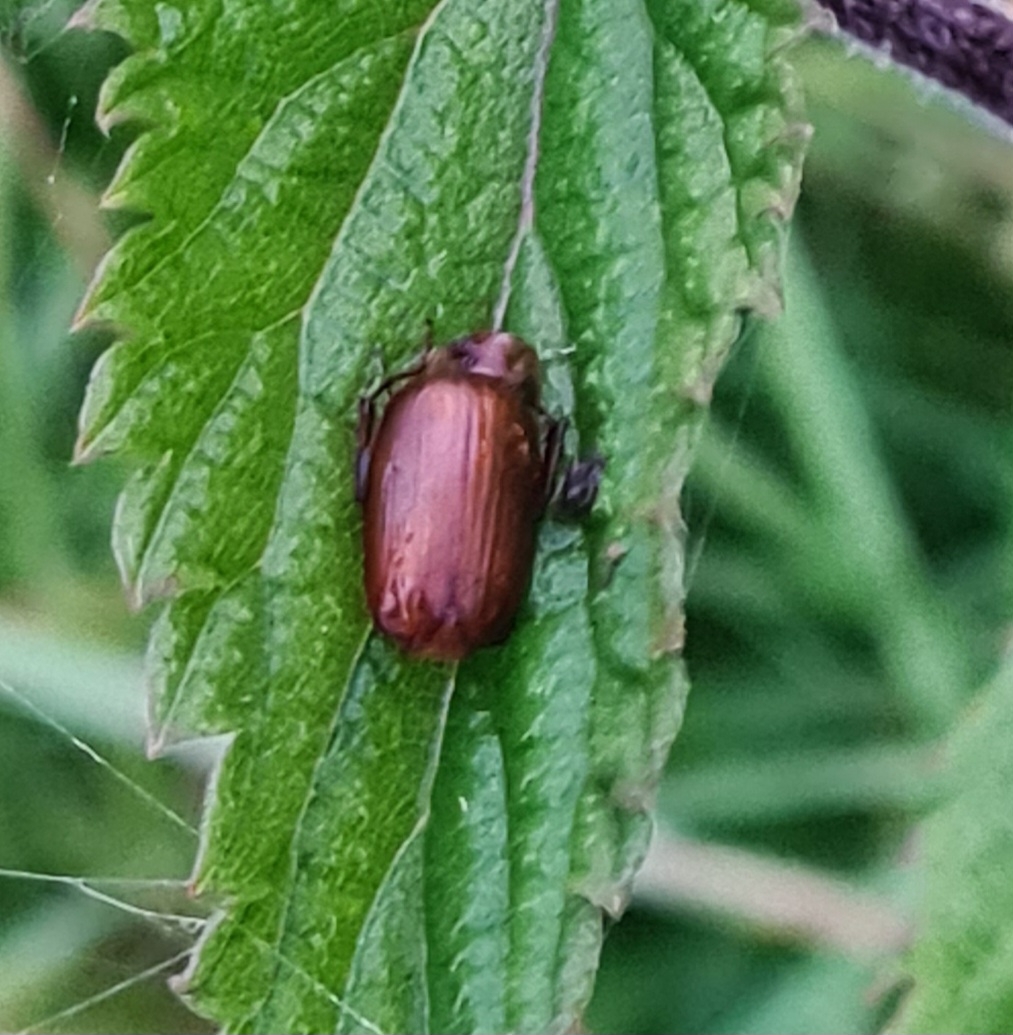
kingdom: Animalia
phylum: Arthropoda
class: Insecta
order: Coleoptera
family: Scarabaeidae
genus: Serica
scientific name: Serica brunnea
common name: Natoldenborre
